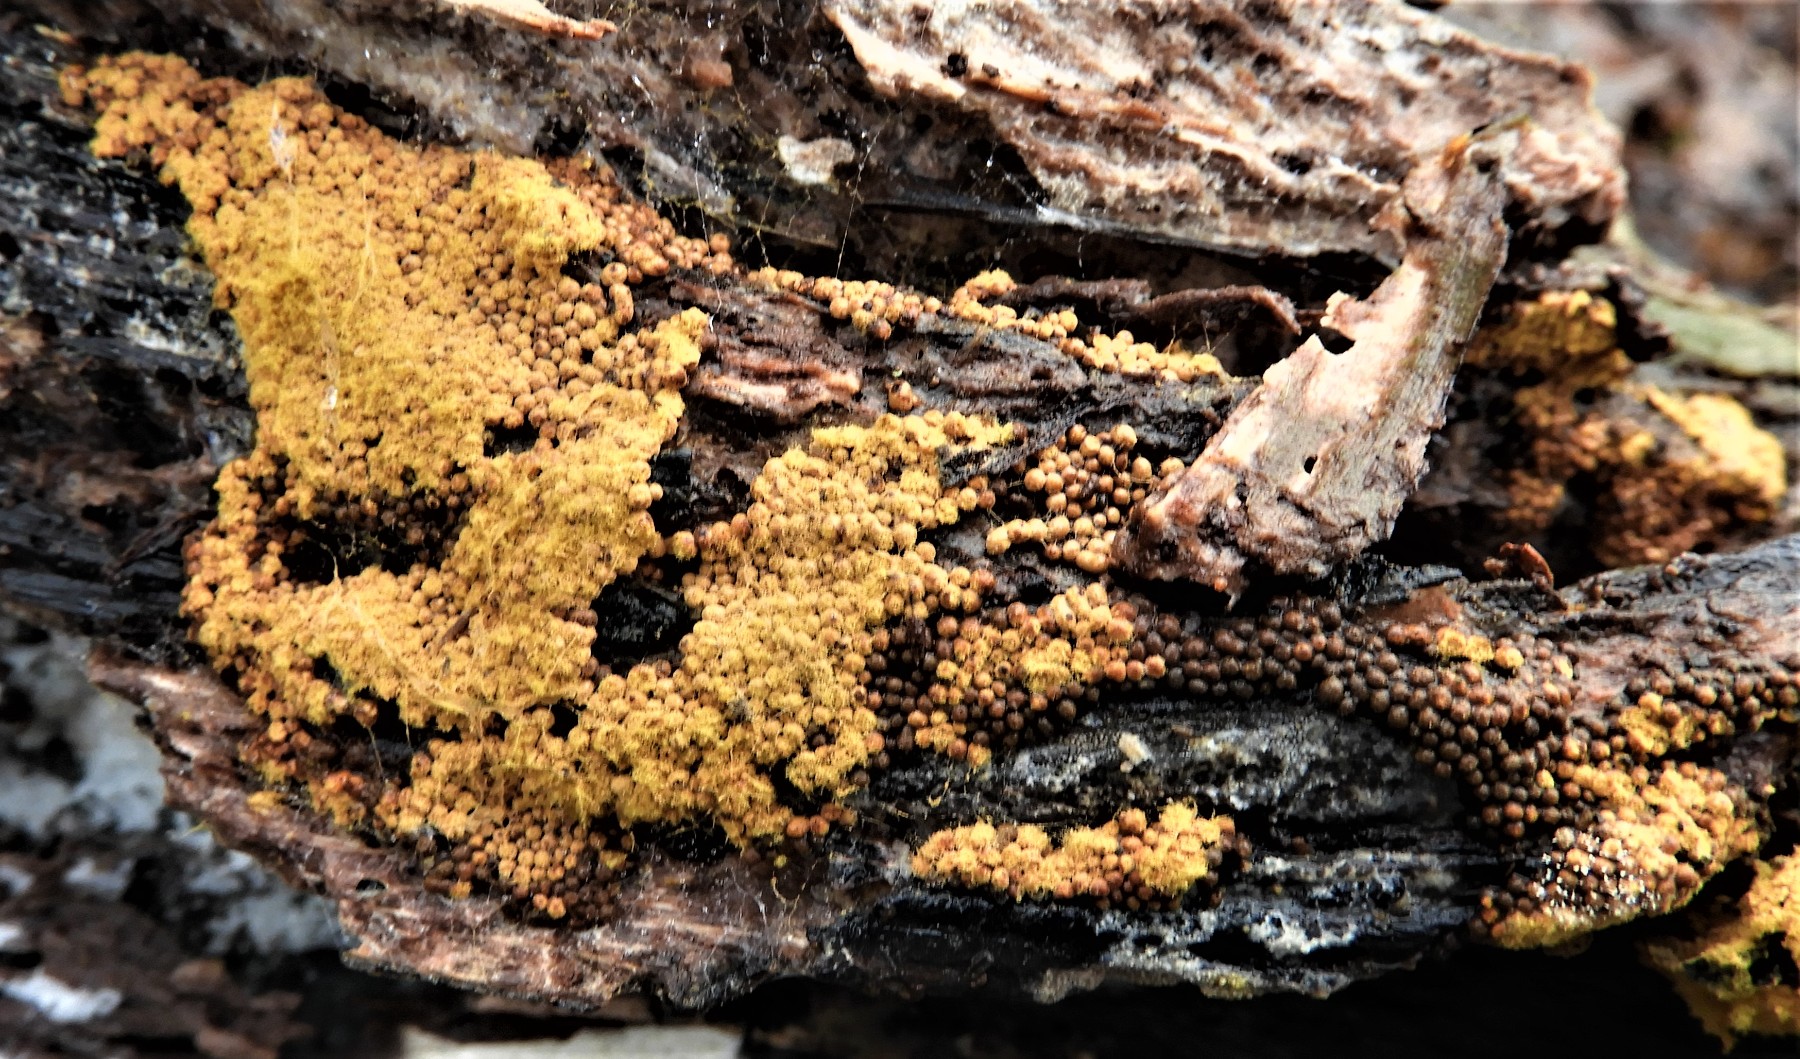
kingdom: Protozoa
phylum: Mycetozoa
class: Myxomycetes
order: Trichiales
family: Trichiaceae
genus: Trichia
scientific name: Trichia
